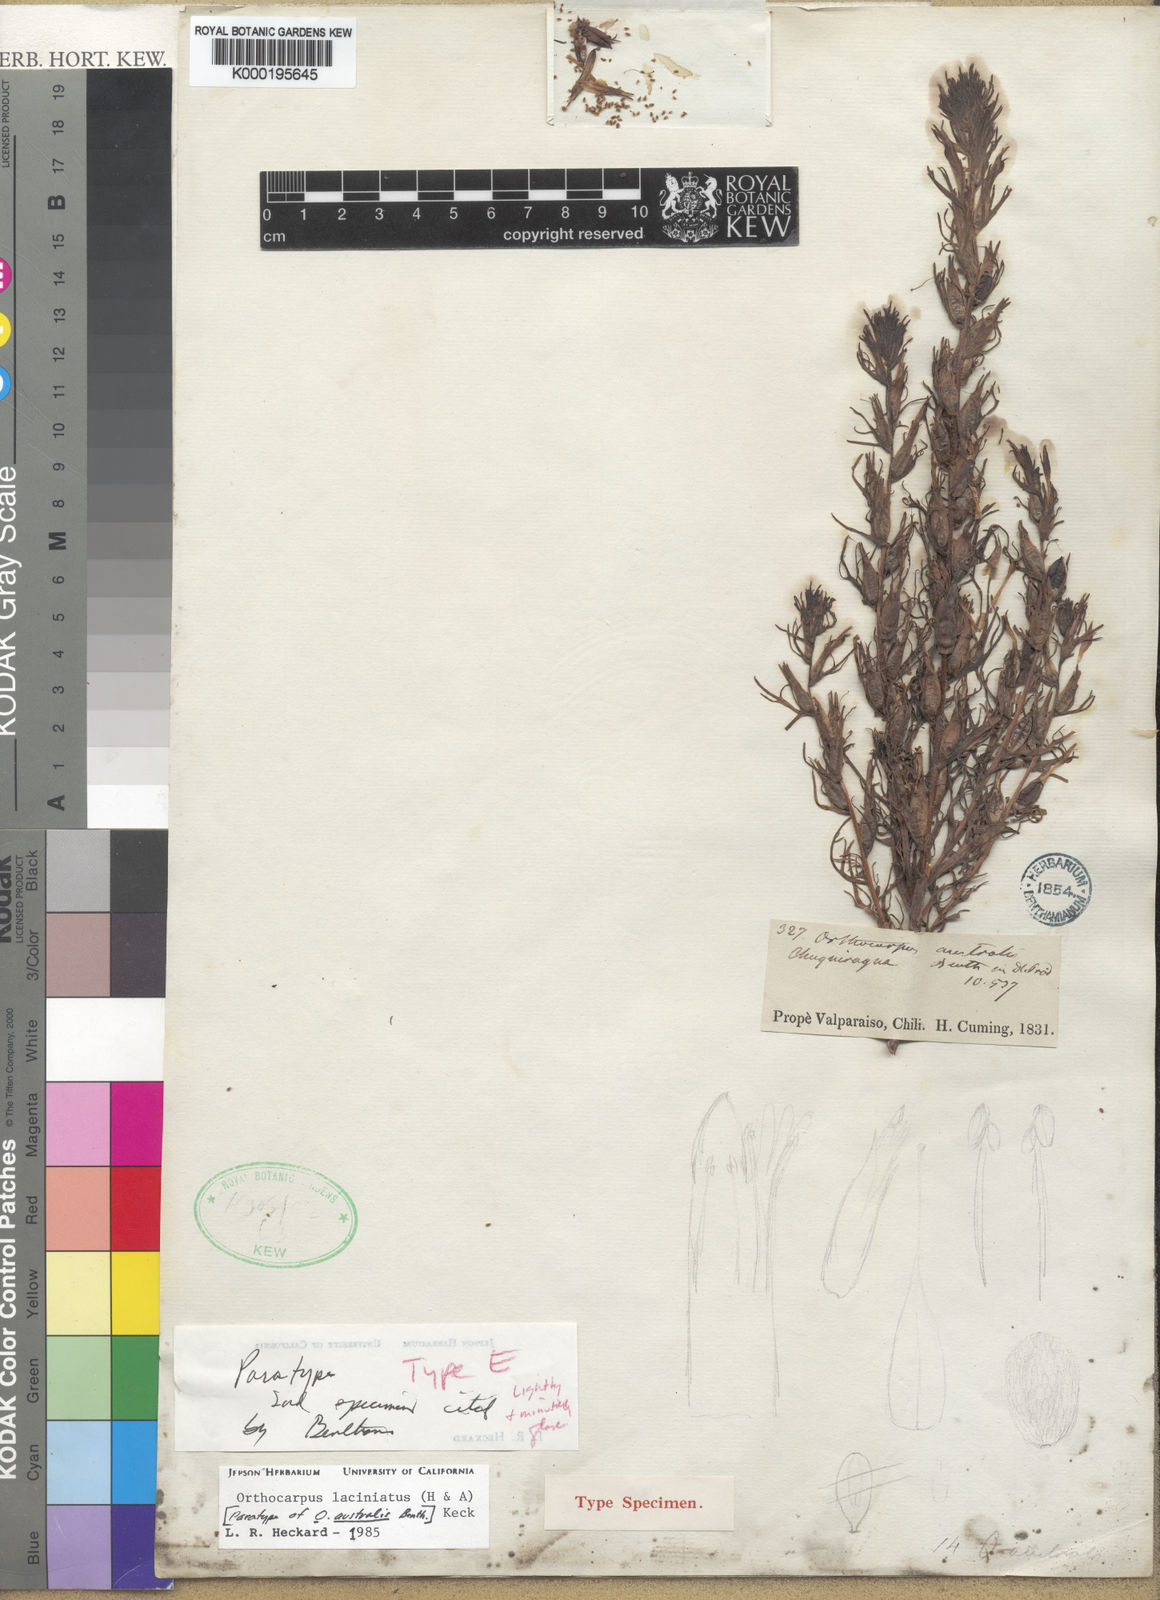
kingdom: Plantae
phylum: Tracheophyta
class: Magnoliopsida
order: Lamiales
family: Orobanchaceae
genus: Castilleja
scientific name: Castilleja laciniata
